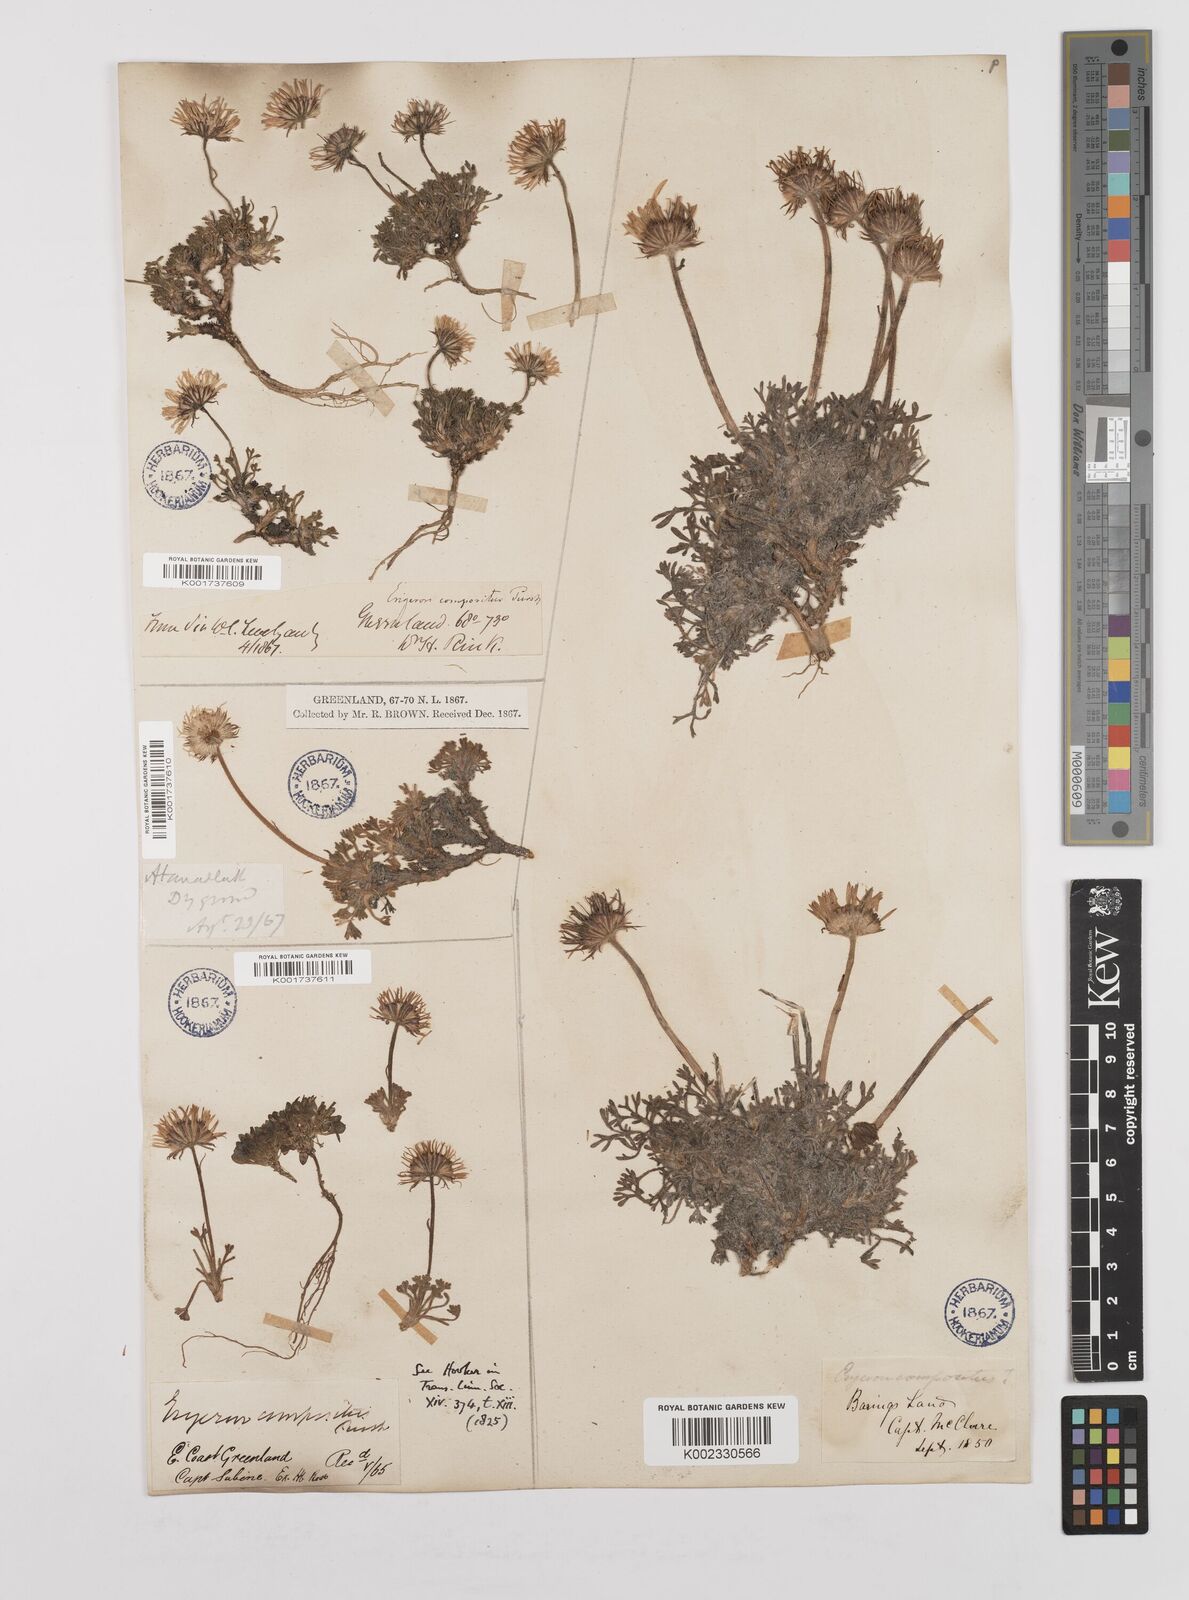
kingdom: Plantae
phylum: Tracheophyta
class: Magnoliopsida
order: Asterales
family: Asteraceae
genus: Erigeron
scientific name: Erigeron compositus
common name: Dwarf mountain fleabane
